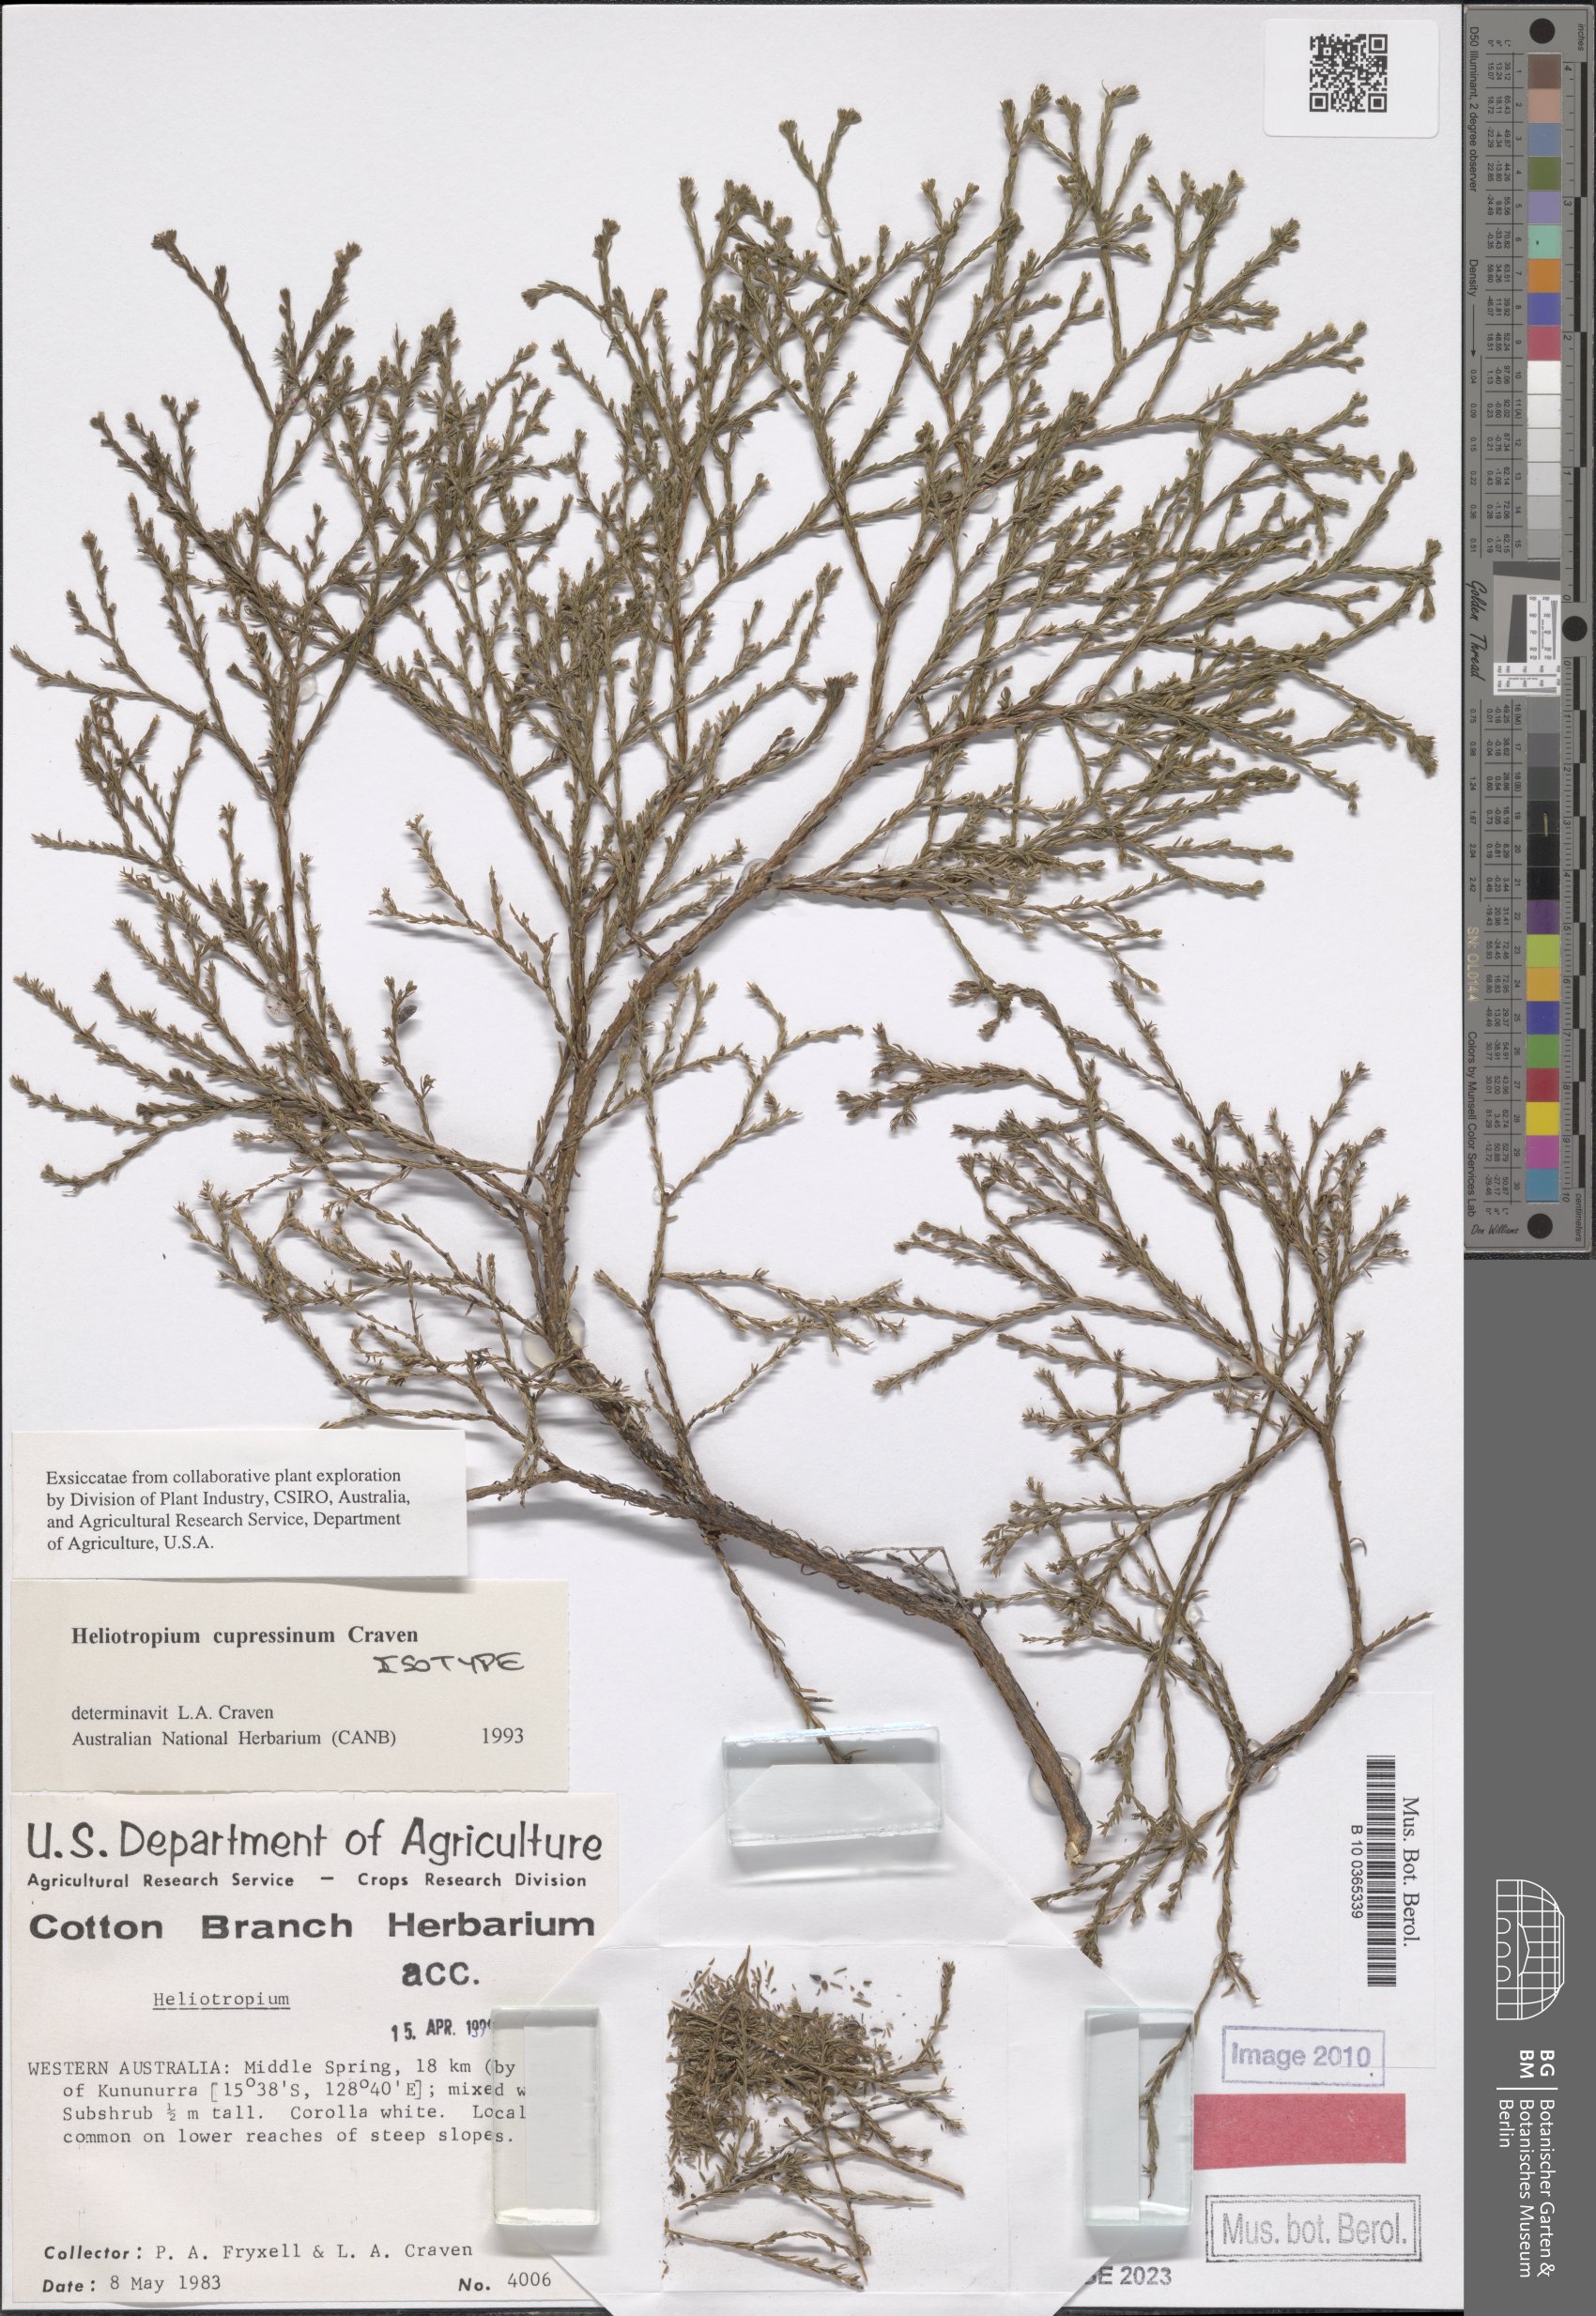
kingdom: Plantae
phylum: Tracheophyta
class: Magnoliopsida
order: Boraginales
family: Heliotropiaceae
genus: Euploca
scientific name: Euploca cupressina
